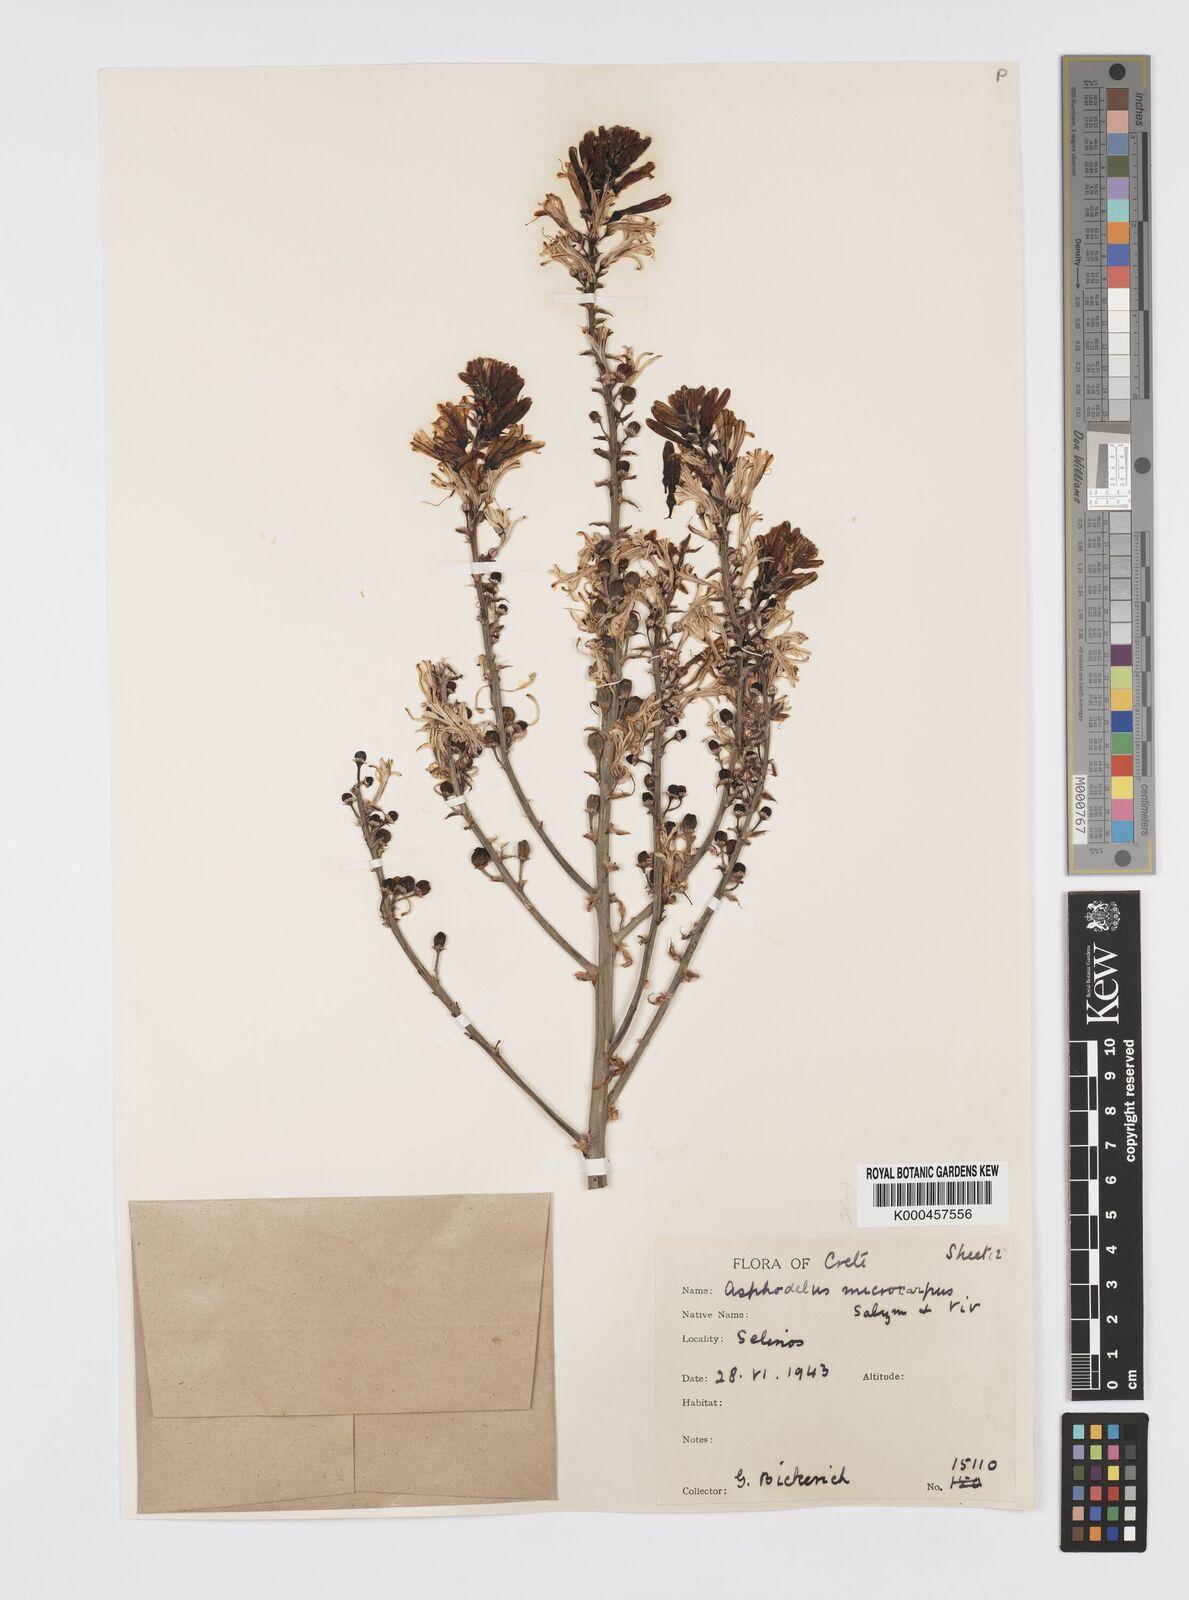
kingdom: Plantae
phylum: Tracheophyta
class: Liliopsida
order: Asparagales
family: Asphodelaceae
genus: Asphodelus
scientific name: Asphodelus aestivus
